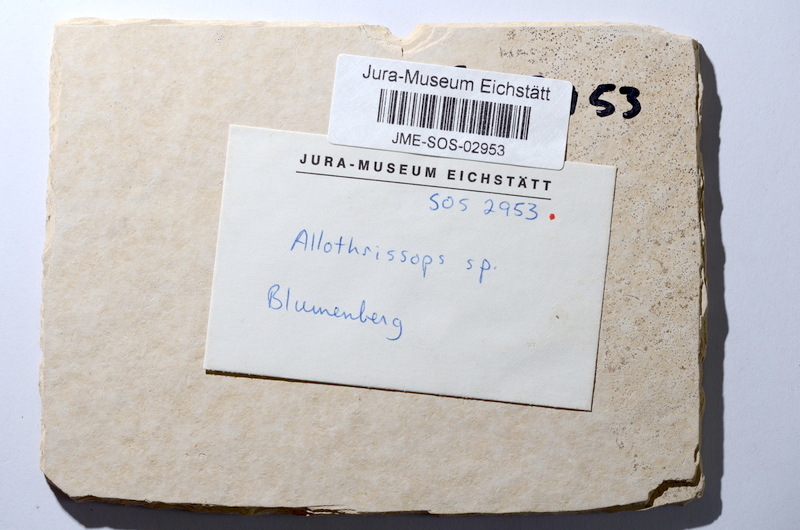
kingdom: Animalia
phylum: Chordata
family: Allothrissopidae
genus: Allothrissops
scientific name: Allothrissops
